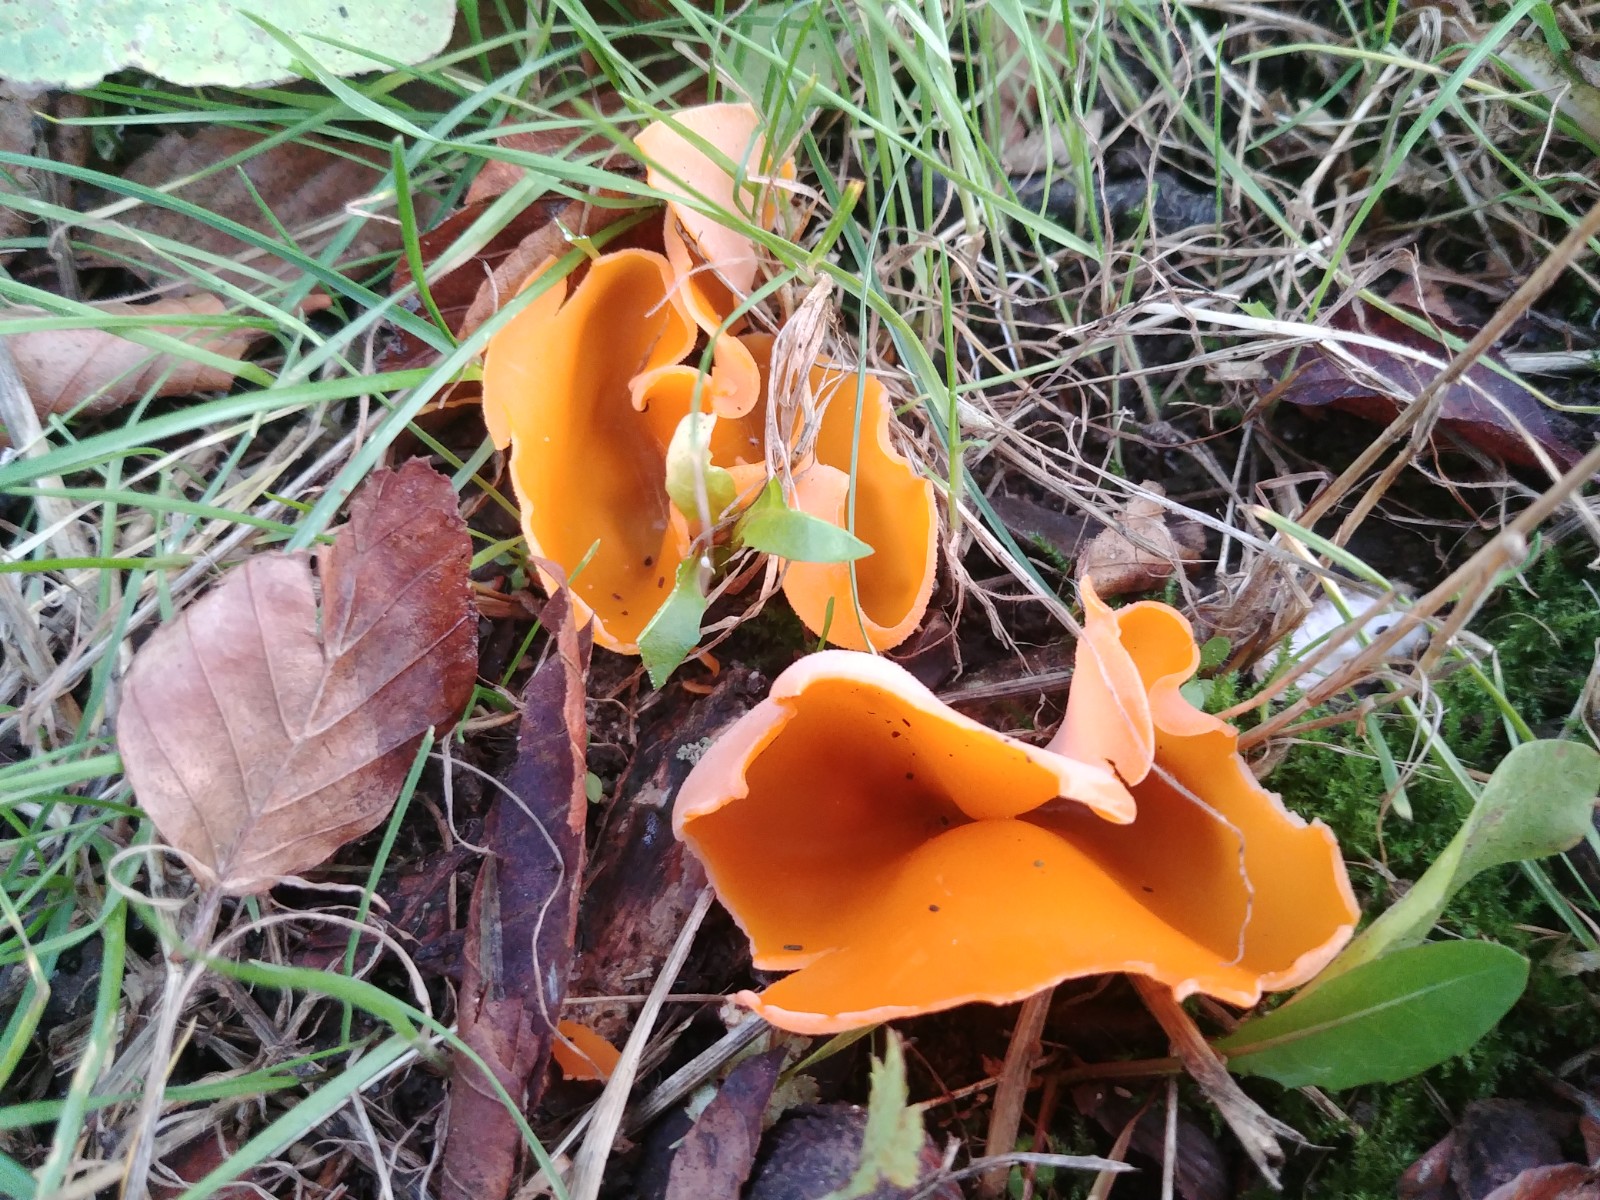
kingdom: Fungi
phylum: Ascomycota
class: Pezizomycetes
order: Pezizales
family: Pyronemataceae
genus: Aleuria
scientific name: Aleuria aurantia
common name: almindelig orangebæger
